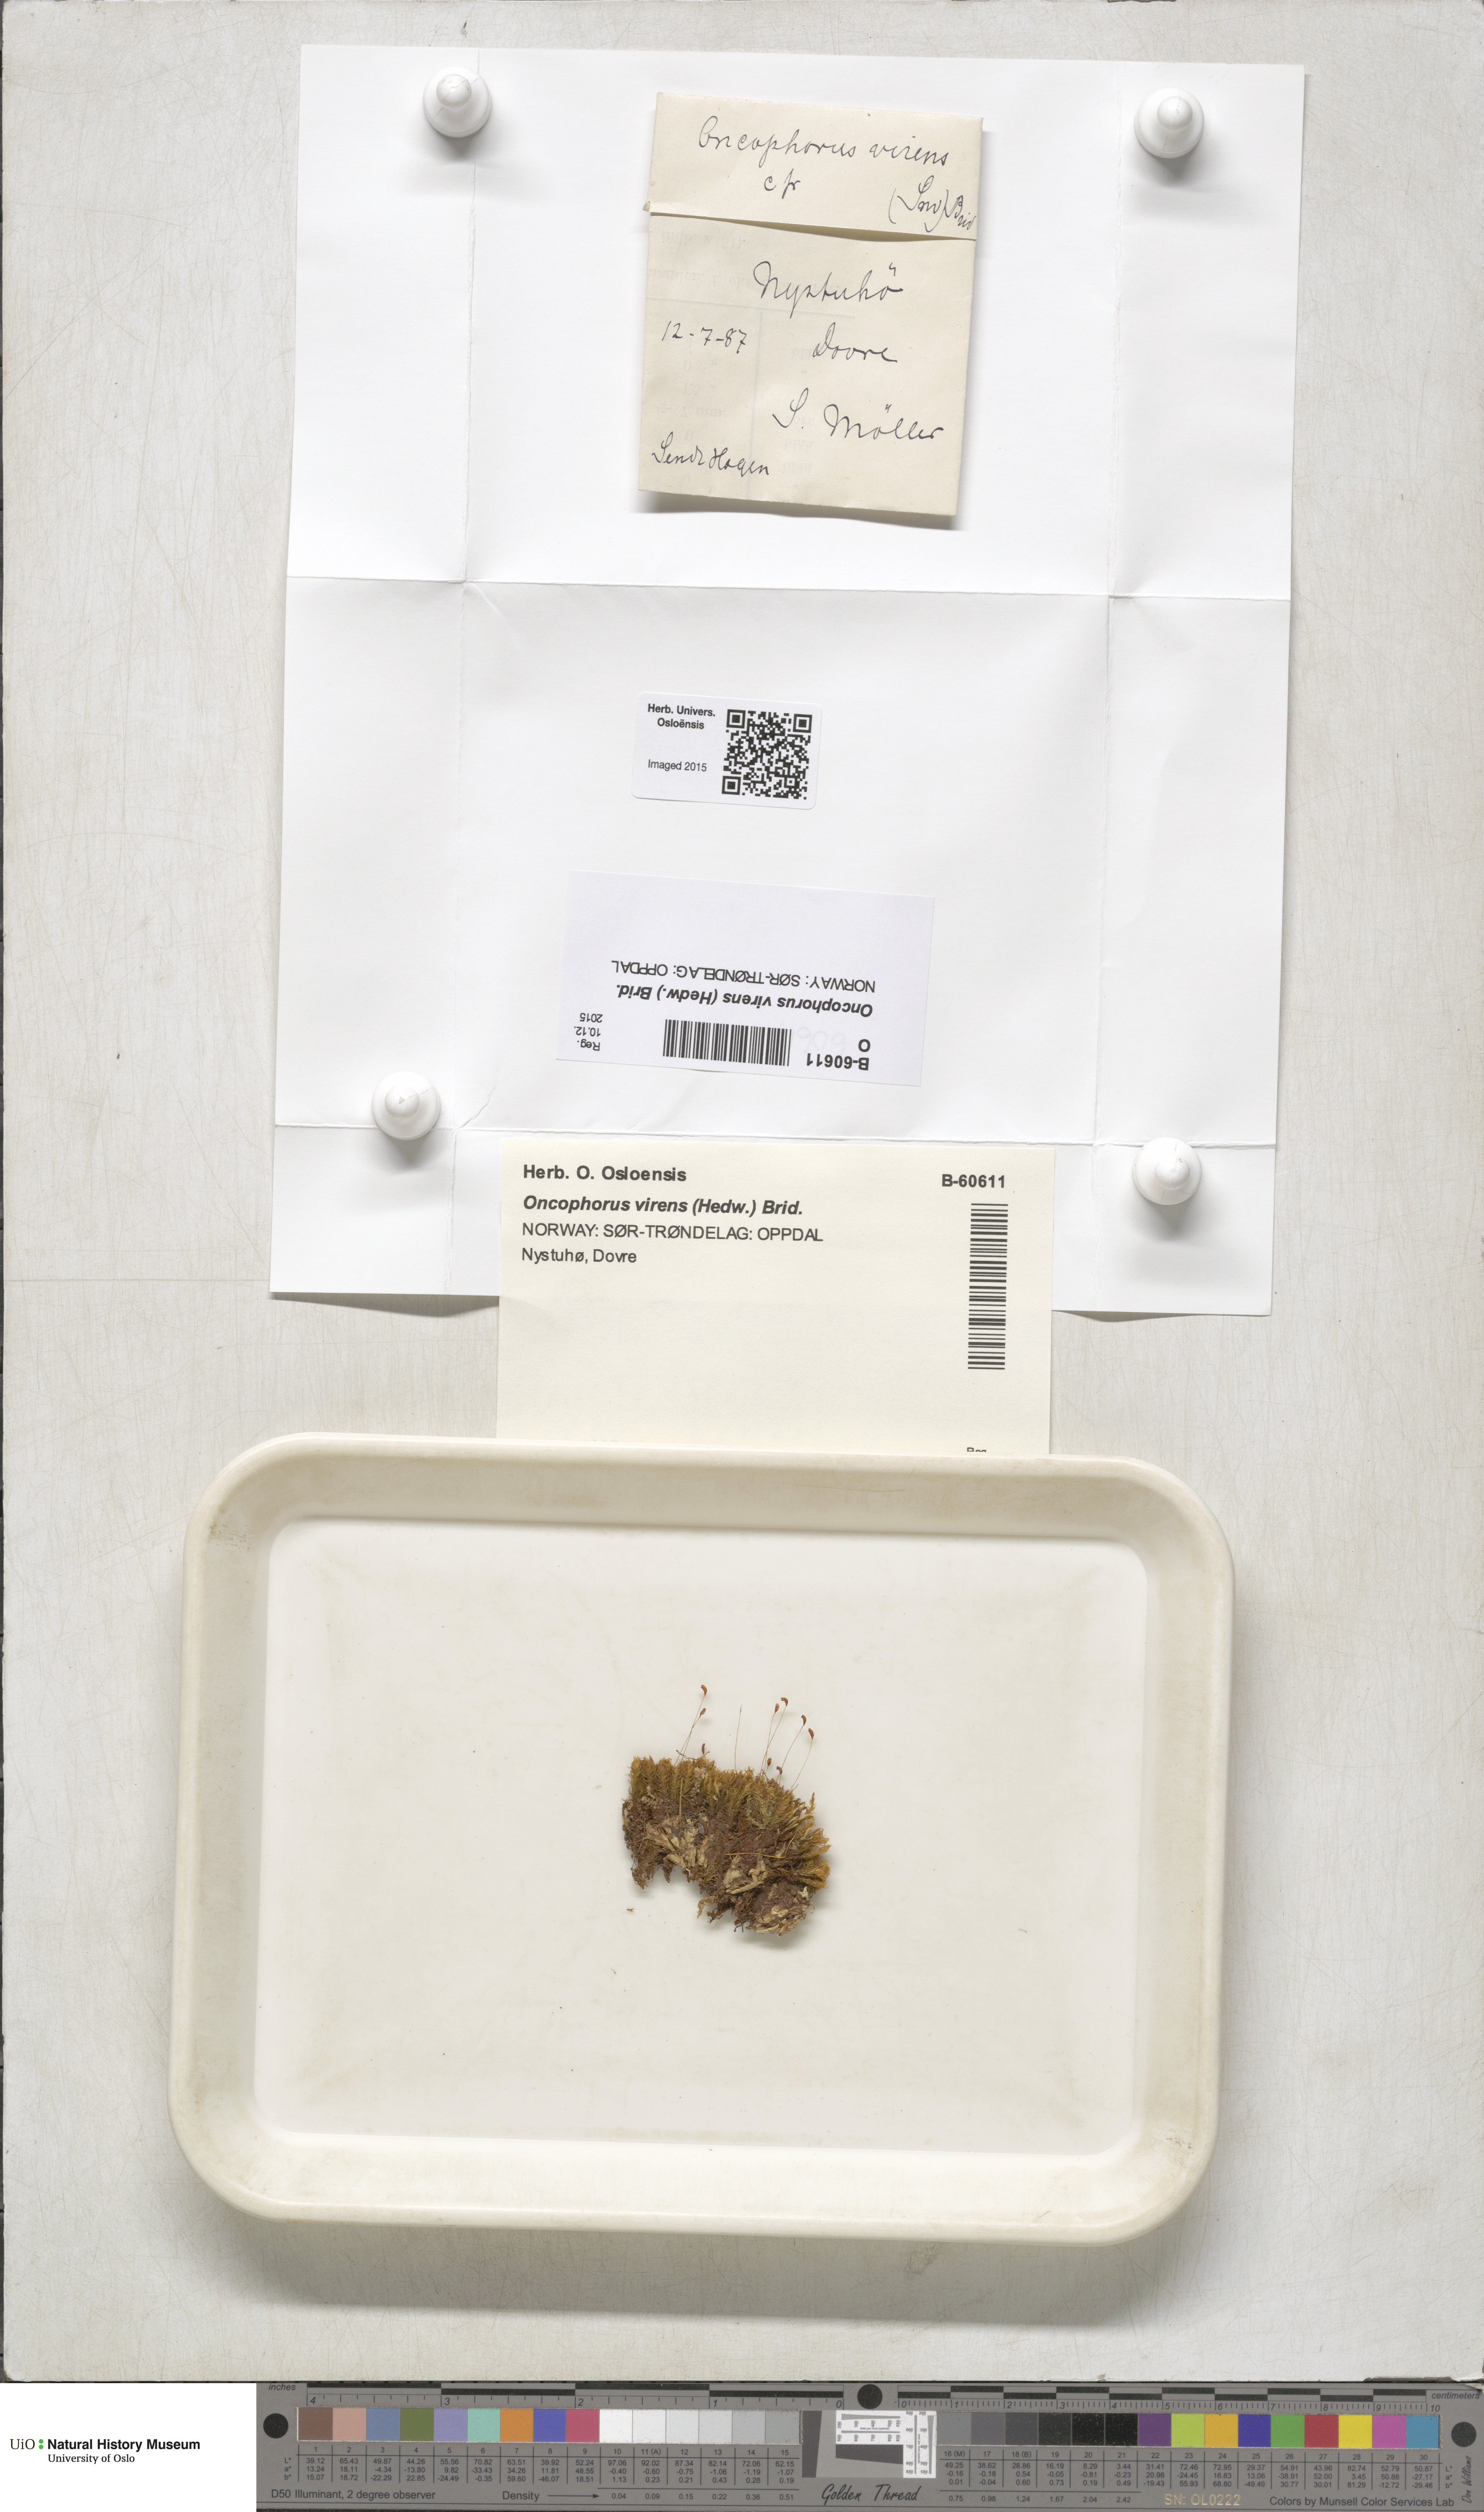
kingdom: Plantae
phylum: Bryophyta
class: Bryopsida
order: Dicranales
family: Rhabdoweisiaceae
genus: Oncophorus
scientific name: Oncophorus virens
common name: Green spur moss
